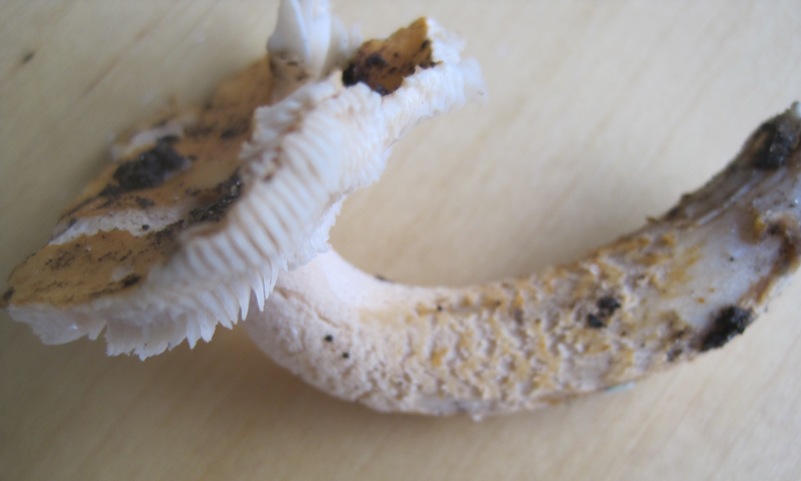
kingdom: Fungi
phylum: Basidiomycota
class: Agaricomycetes
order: Agaricales
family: Amanitaceae
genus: Amanita
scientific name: Amanita crocea
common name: gylden kam-fluesvamp
